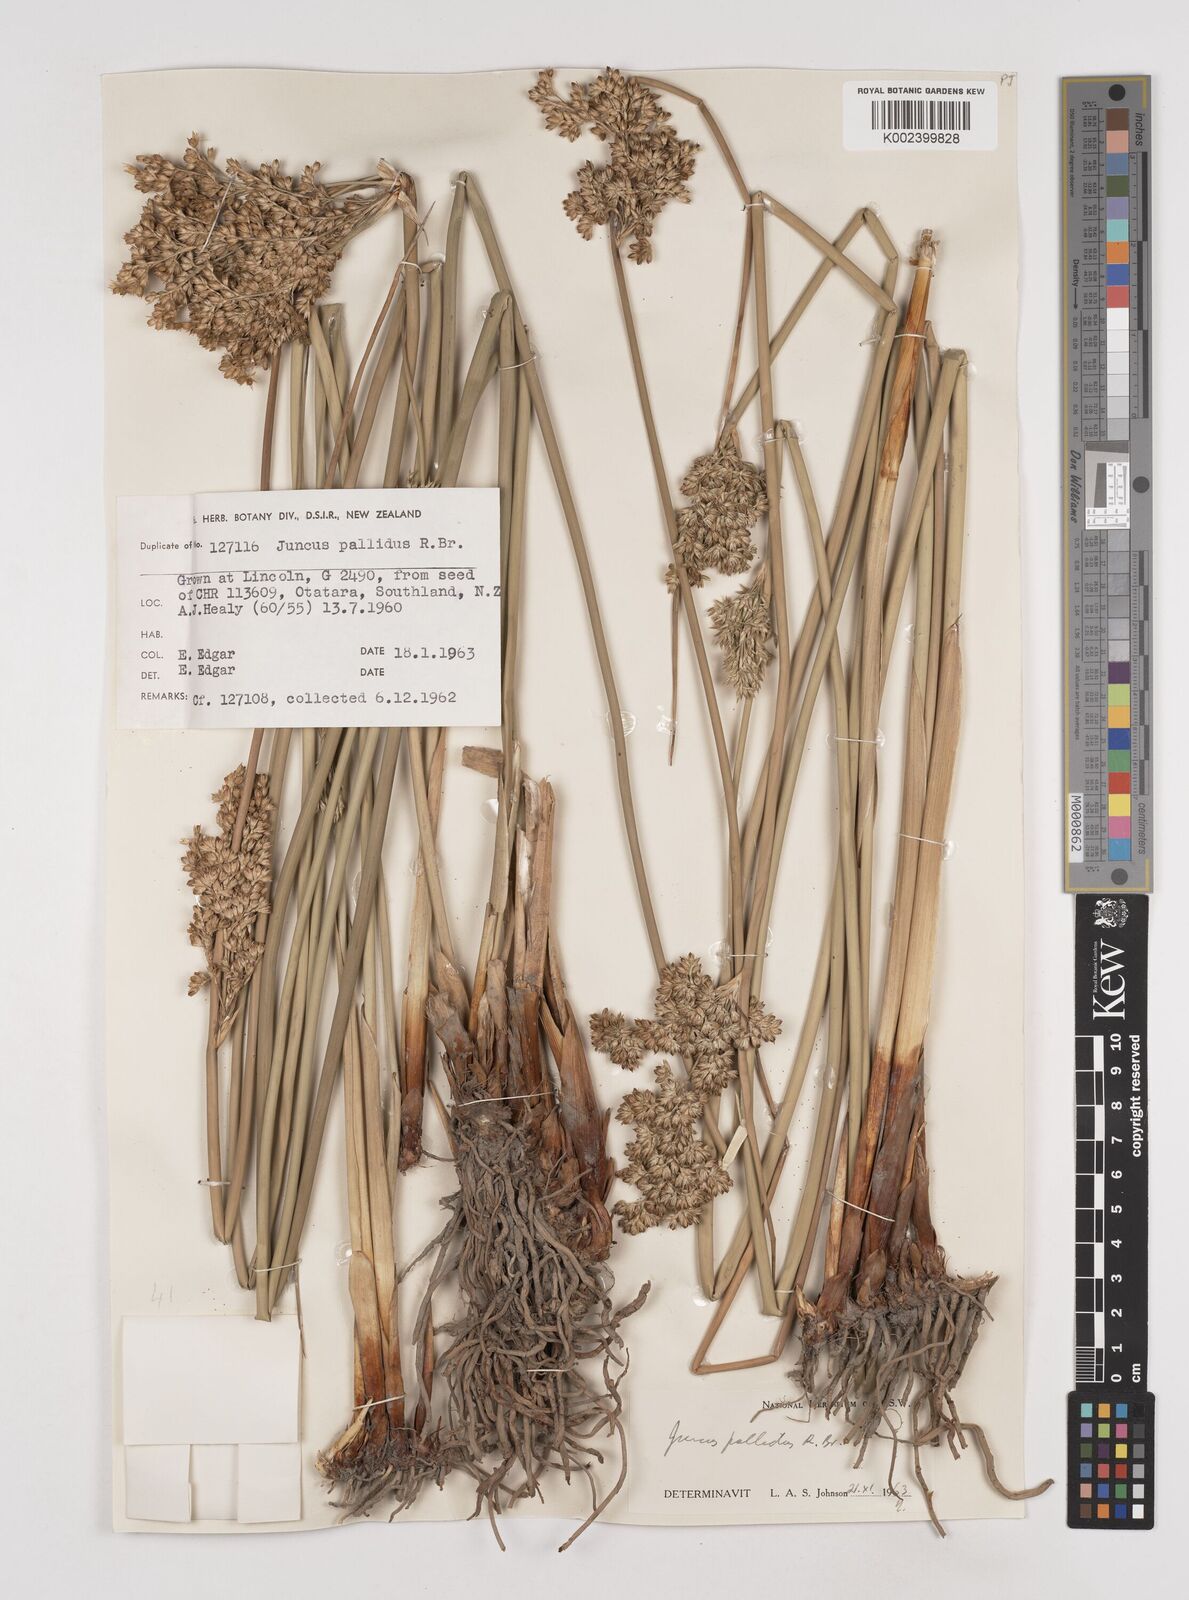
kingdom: Plantae
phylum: Tracheophyta
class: Liliopsida
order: Poales
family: Juncaceae
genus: Juncus
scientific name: Juncus pallidus
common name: Great soft-rush
